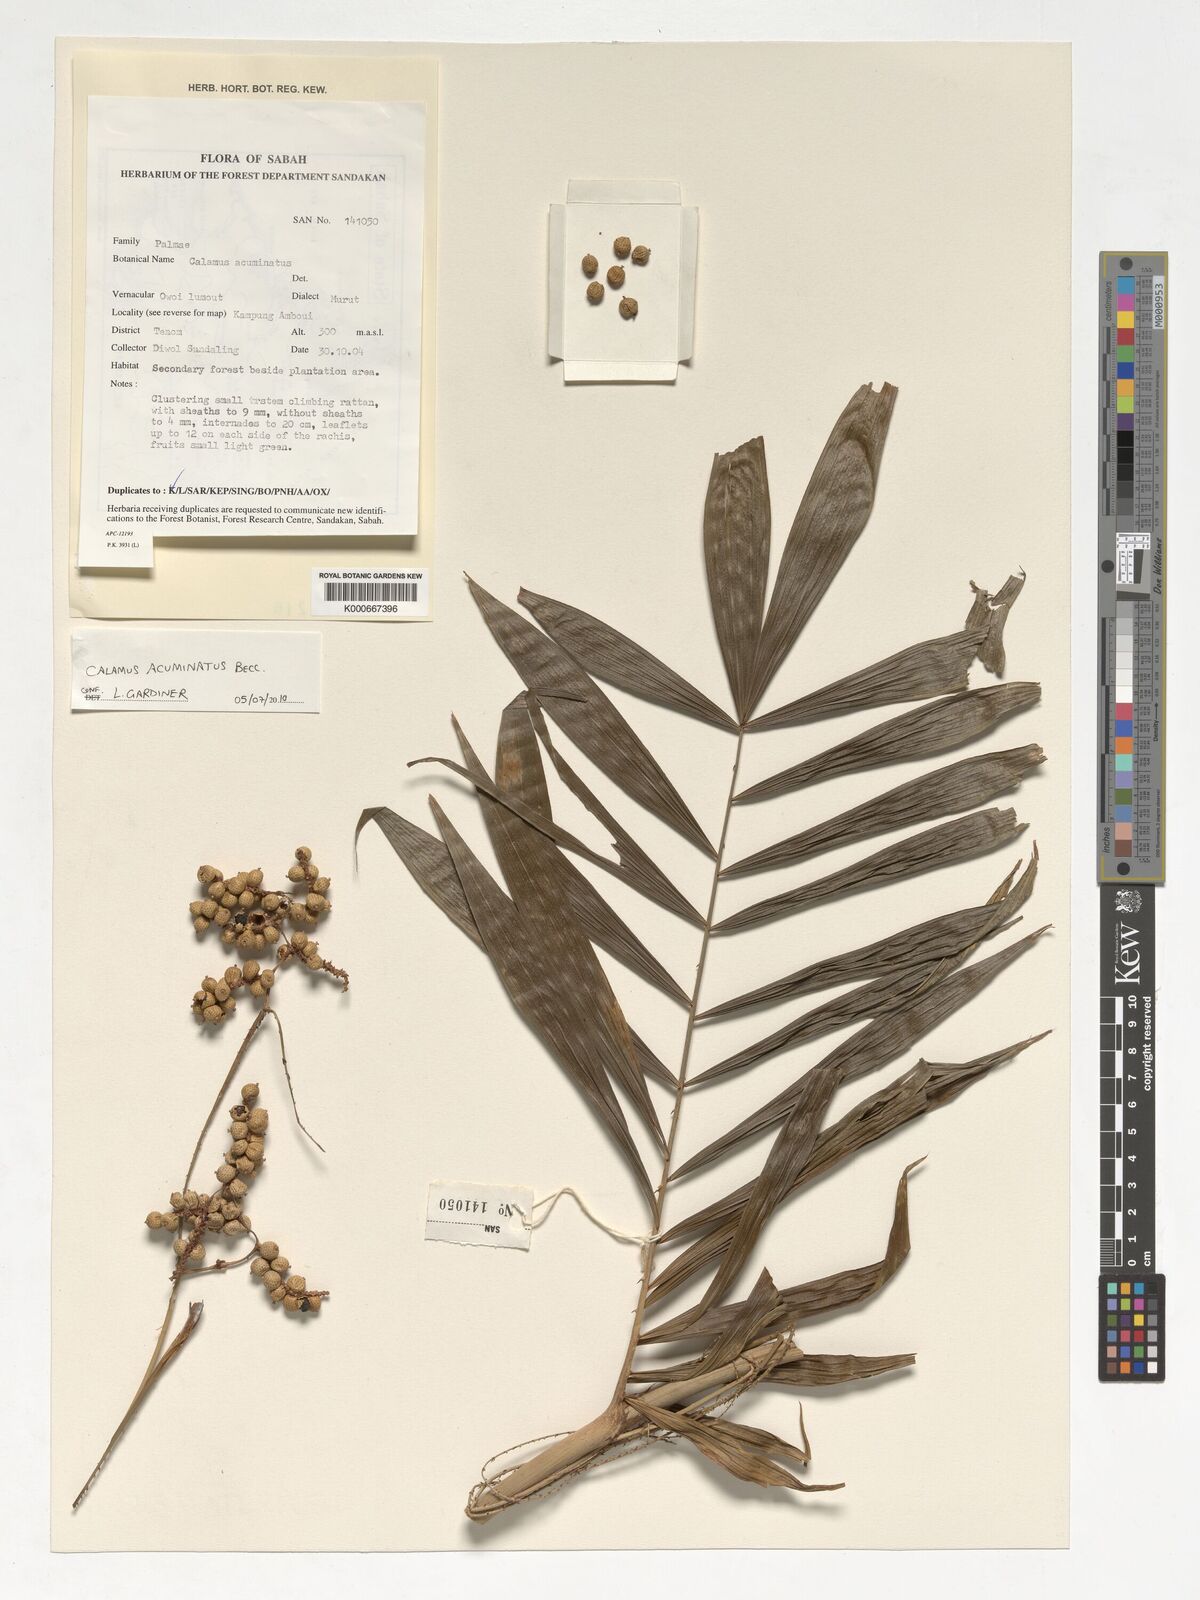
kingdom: Plantae
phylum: Tracheophyta
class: Liliopsida
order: Arecales
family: Arecaceae
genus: Calamus
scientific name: Calamus javensis
